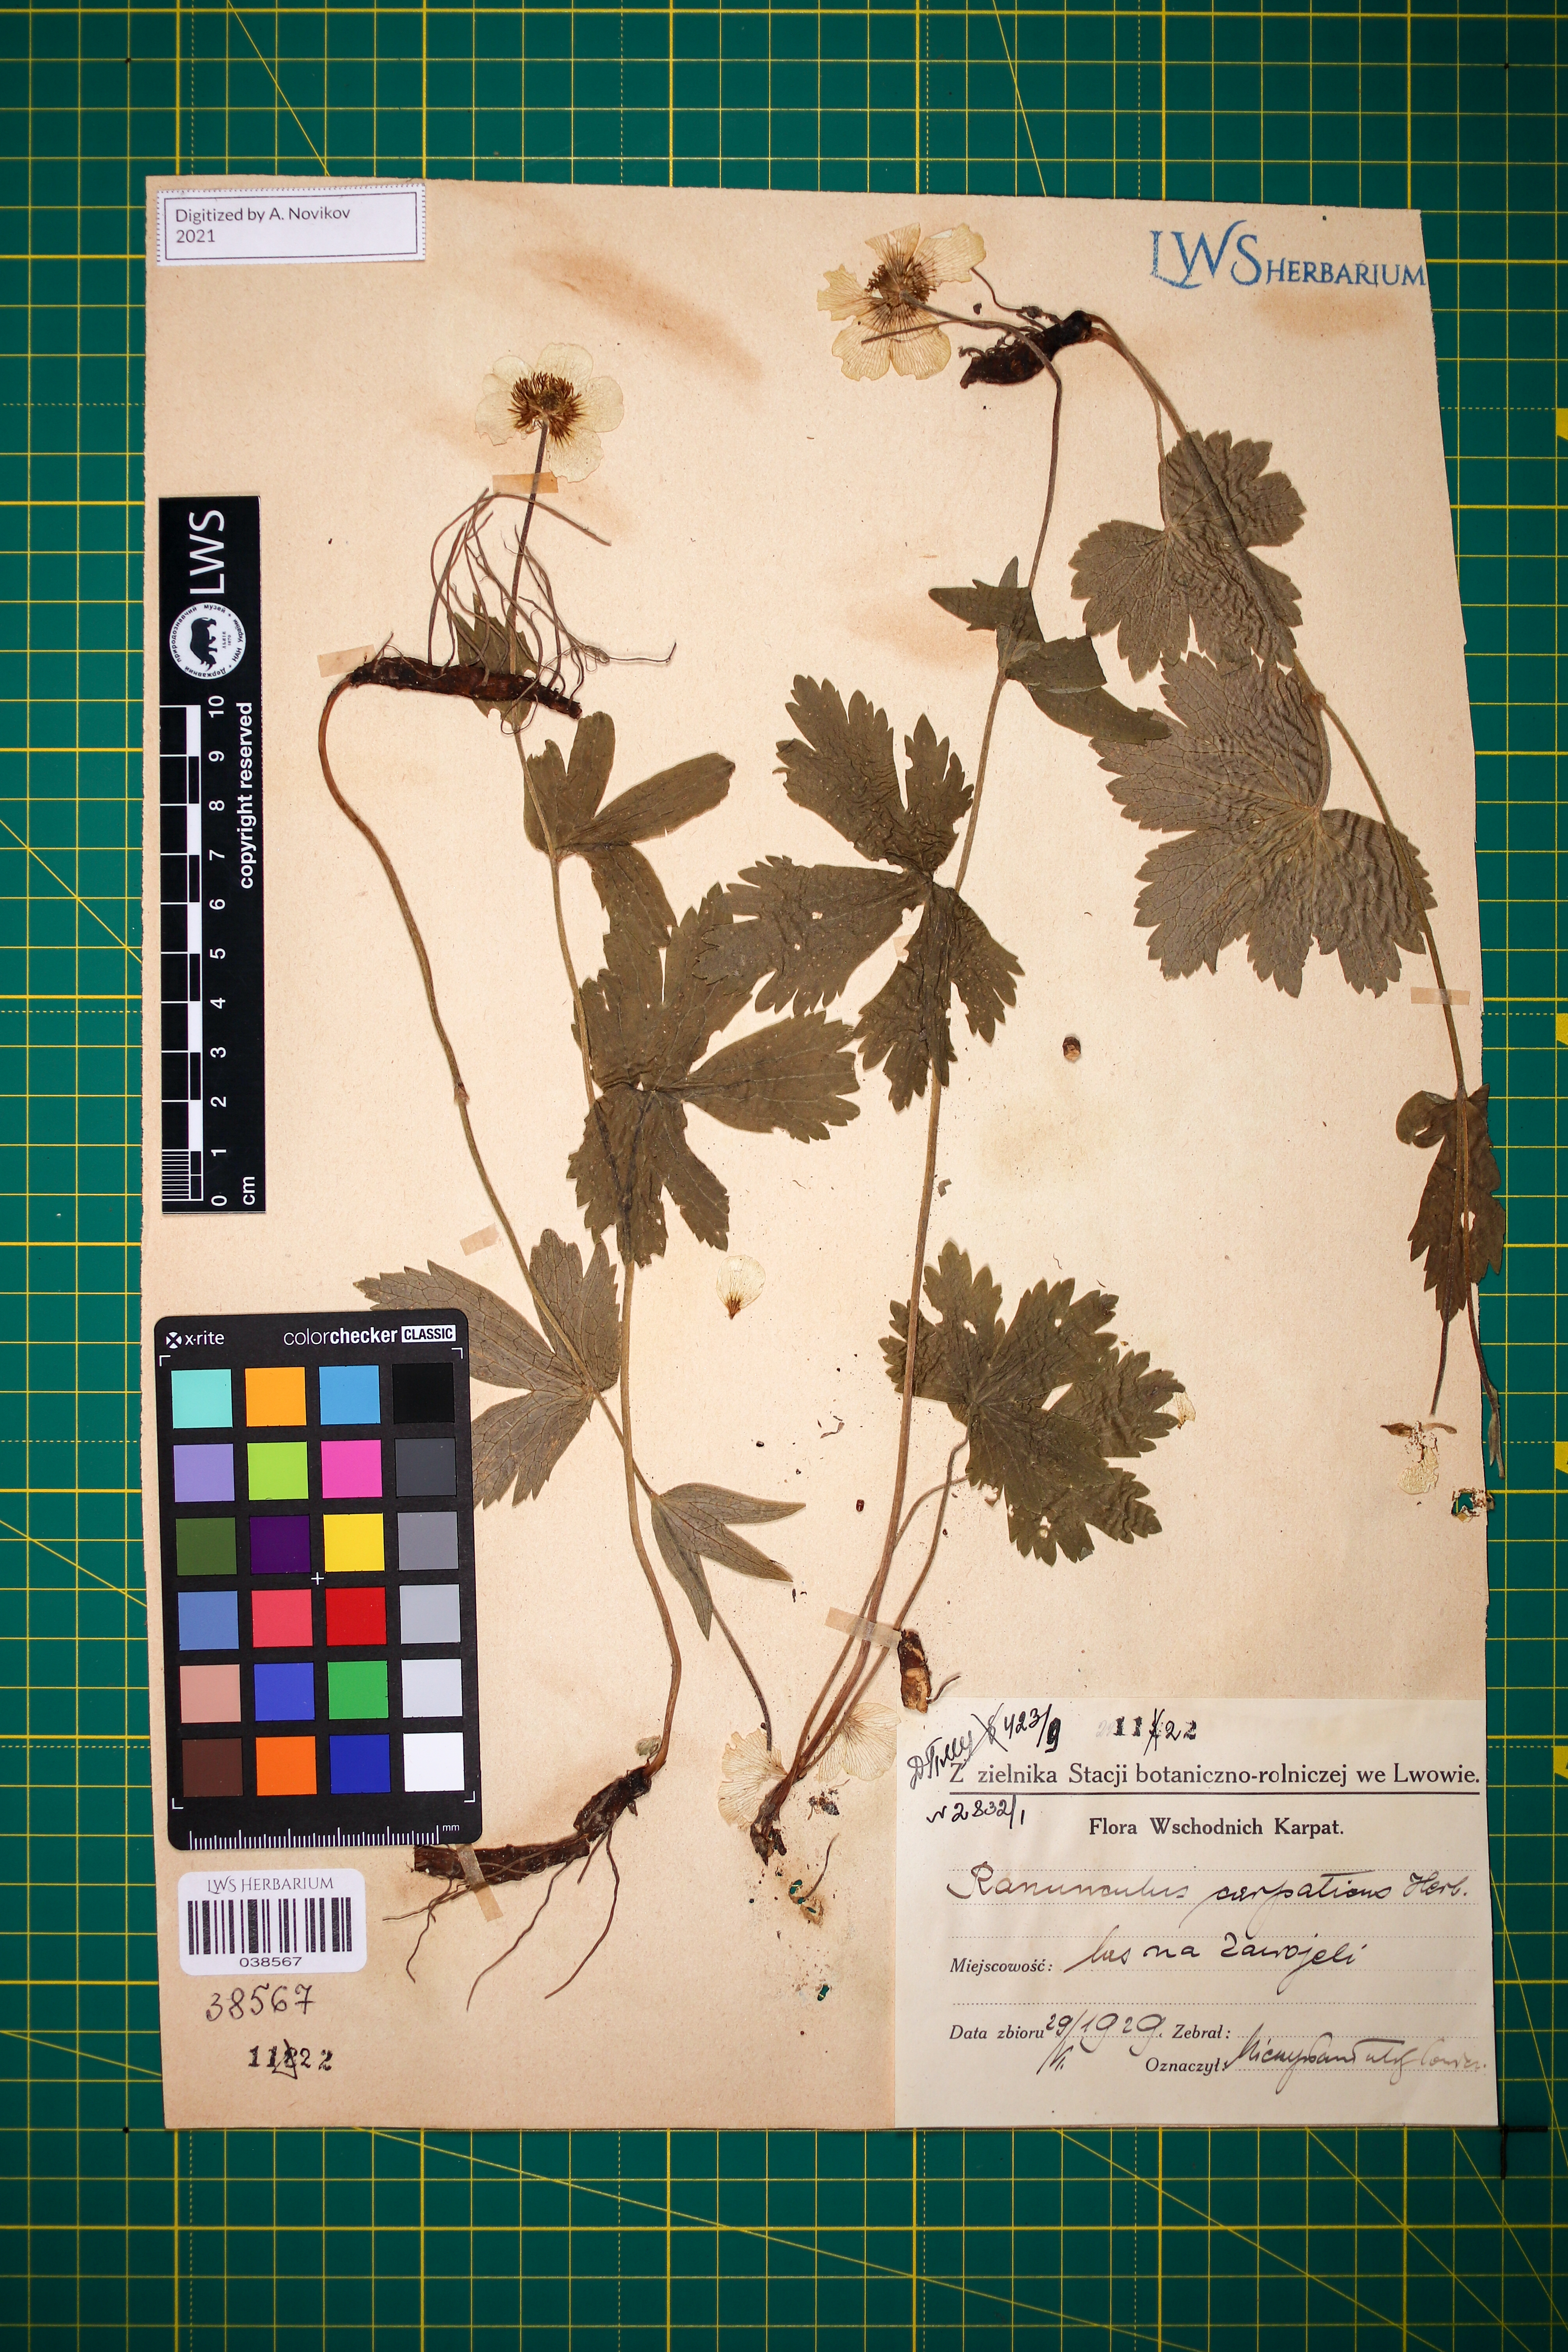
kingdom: Plantae
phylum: Tracheophyta
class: Magnoliopsida
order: Ranunculales
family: Ranunculaceae
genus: Ranunculus
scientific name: Ranunculus carpaticus
